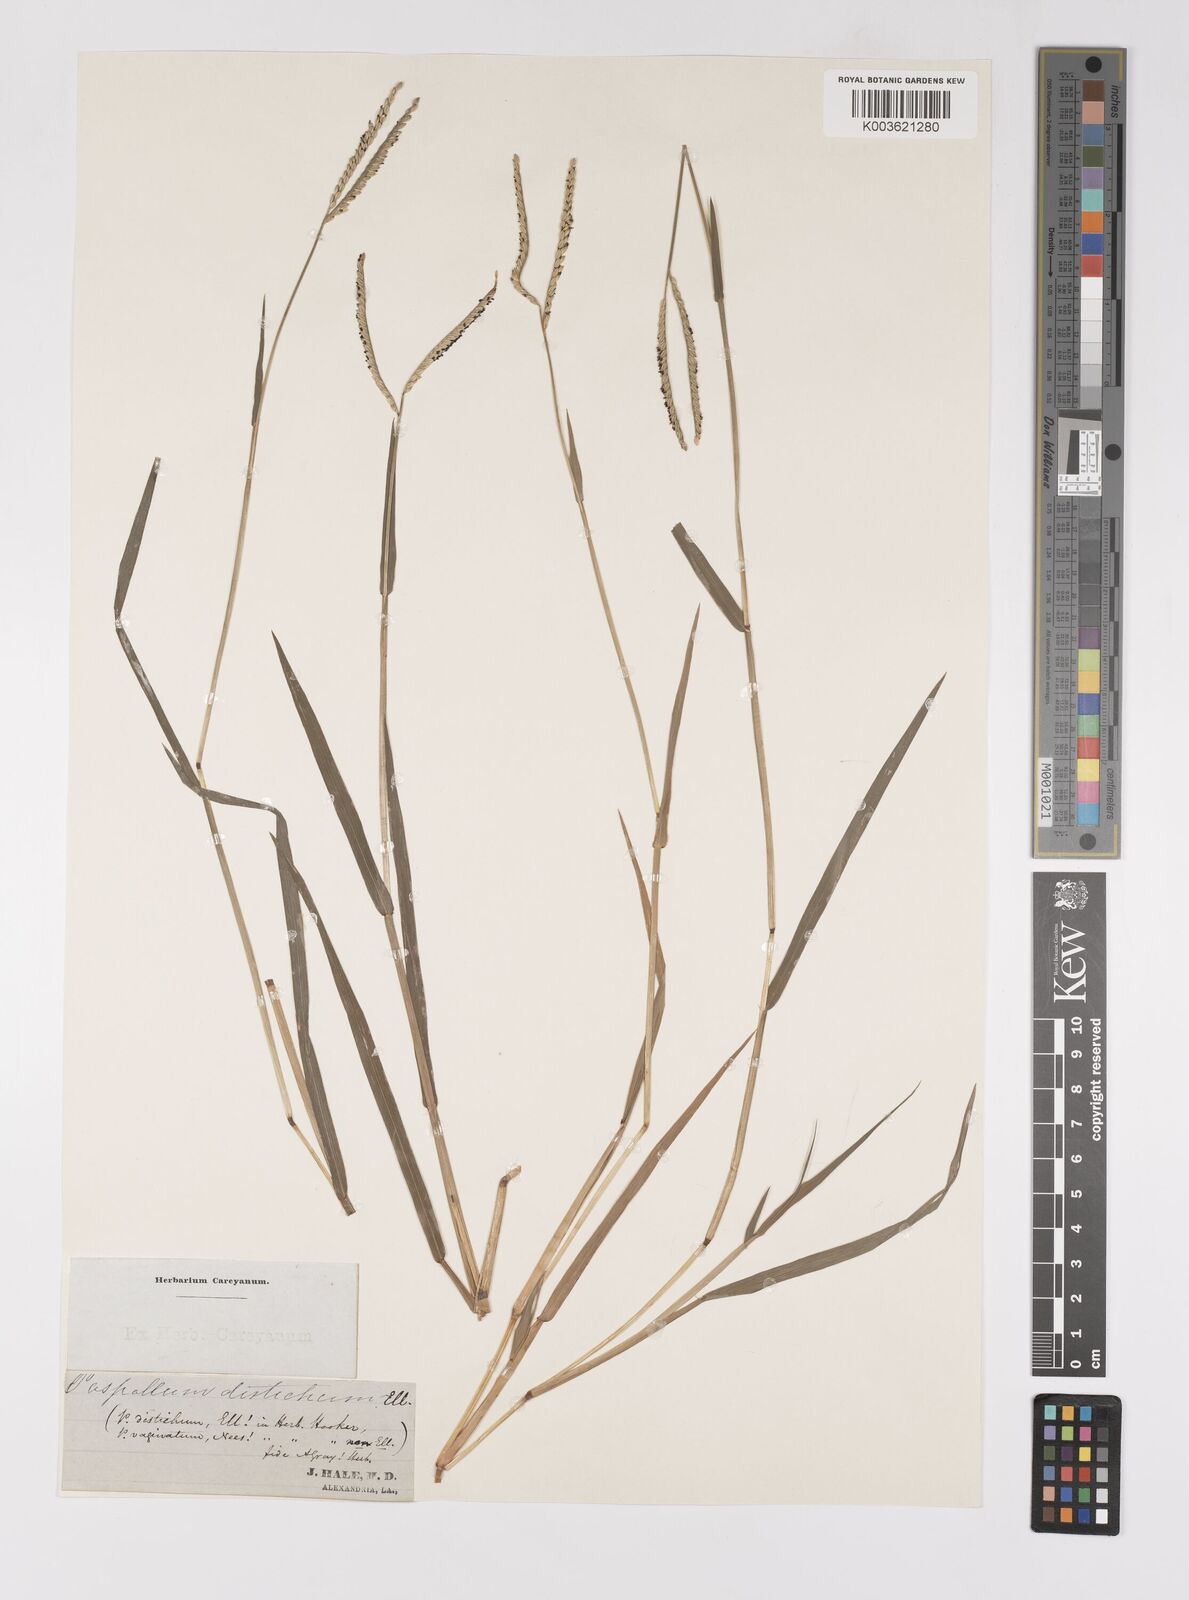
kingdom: Plantae
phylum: Tracheophyta
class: Liliopsida
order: Poales
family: Poaceae
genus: Paspalum
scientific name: Paspalum distichum
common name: Knotgrass
